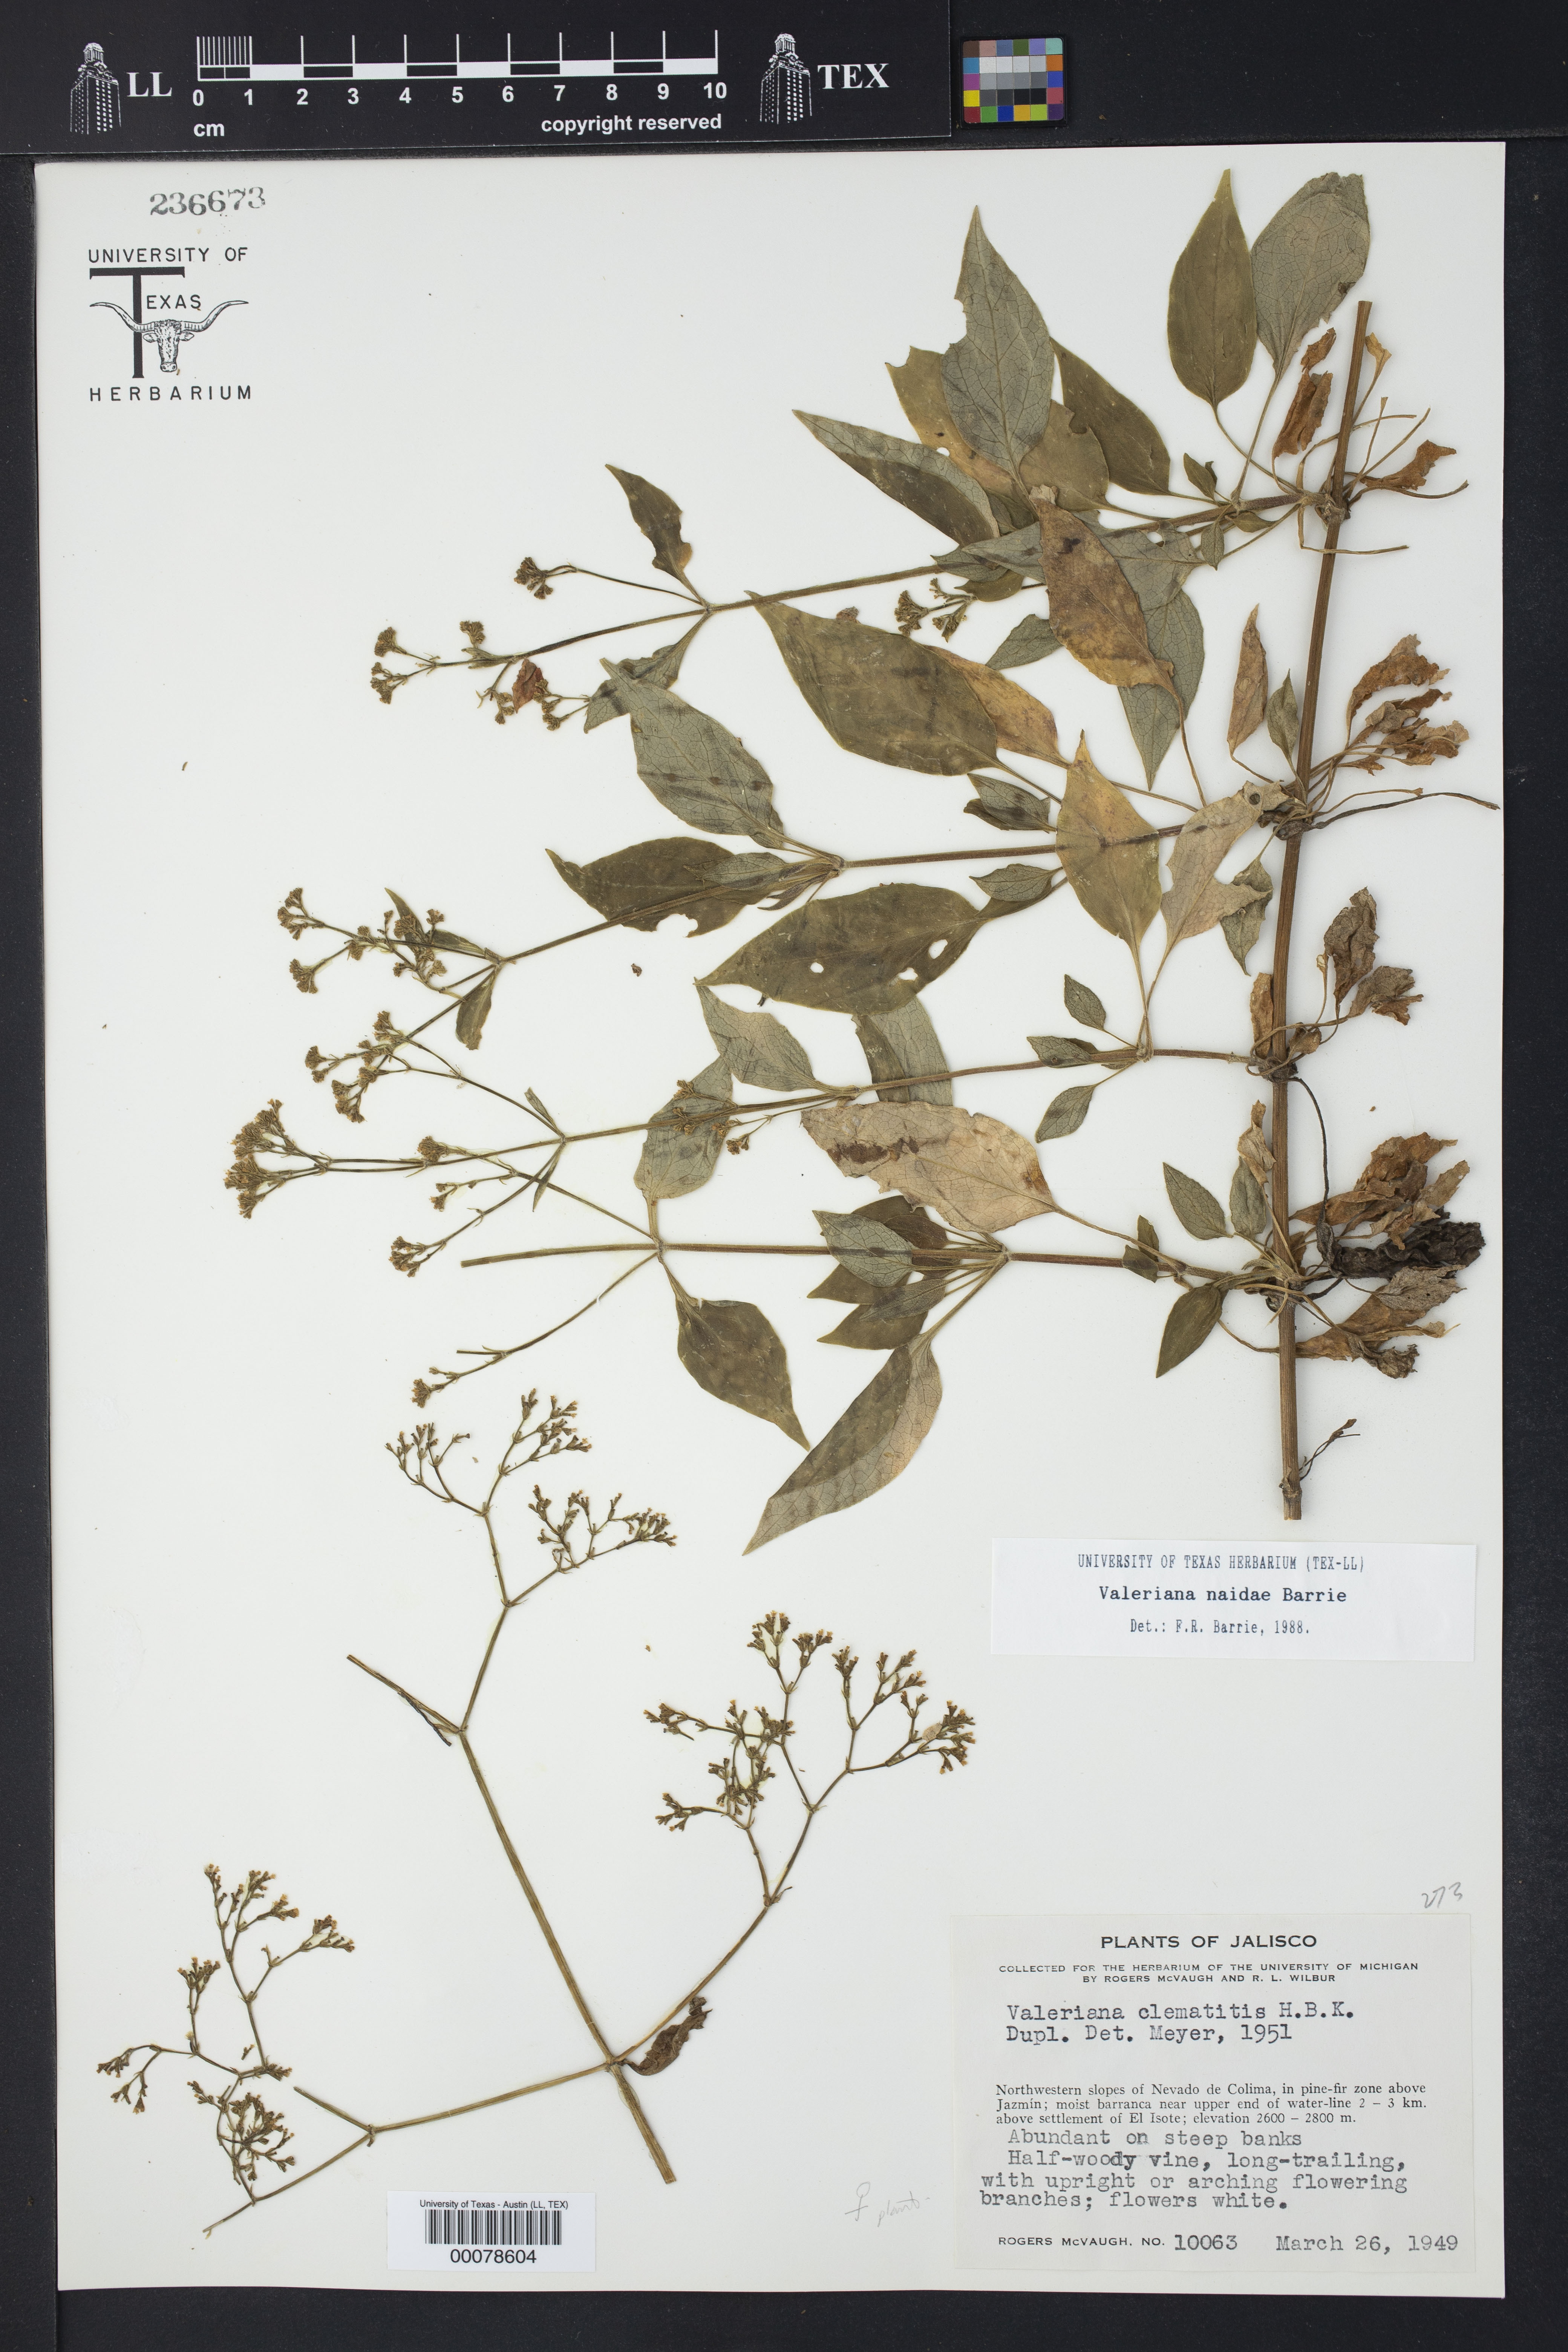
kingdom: Plantae
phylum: Tracheophyta
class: Magnoliopsida
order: Dipsacales
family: Caprifoliaceae
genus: Valeriana
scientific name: Valeriana naidae
